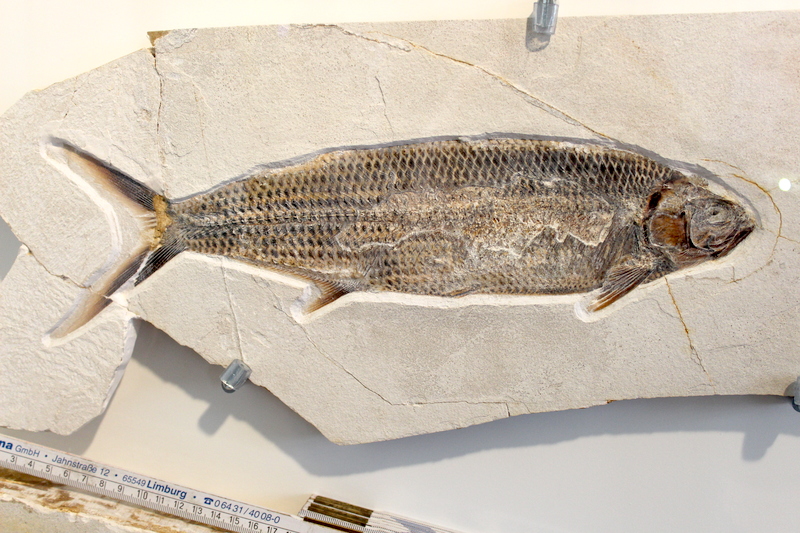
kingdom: Animalia
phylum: Chordata
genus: Thrissops
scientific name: Thrissops formosus
